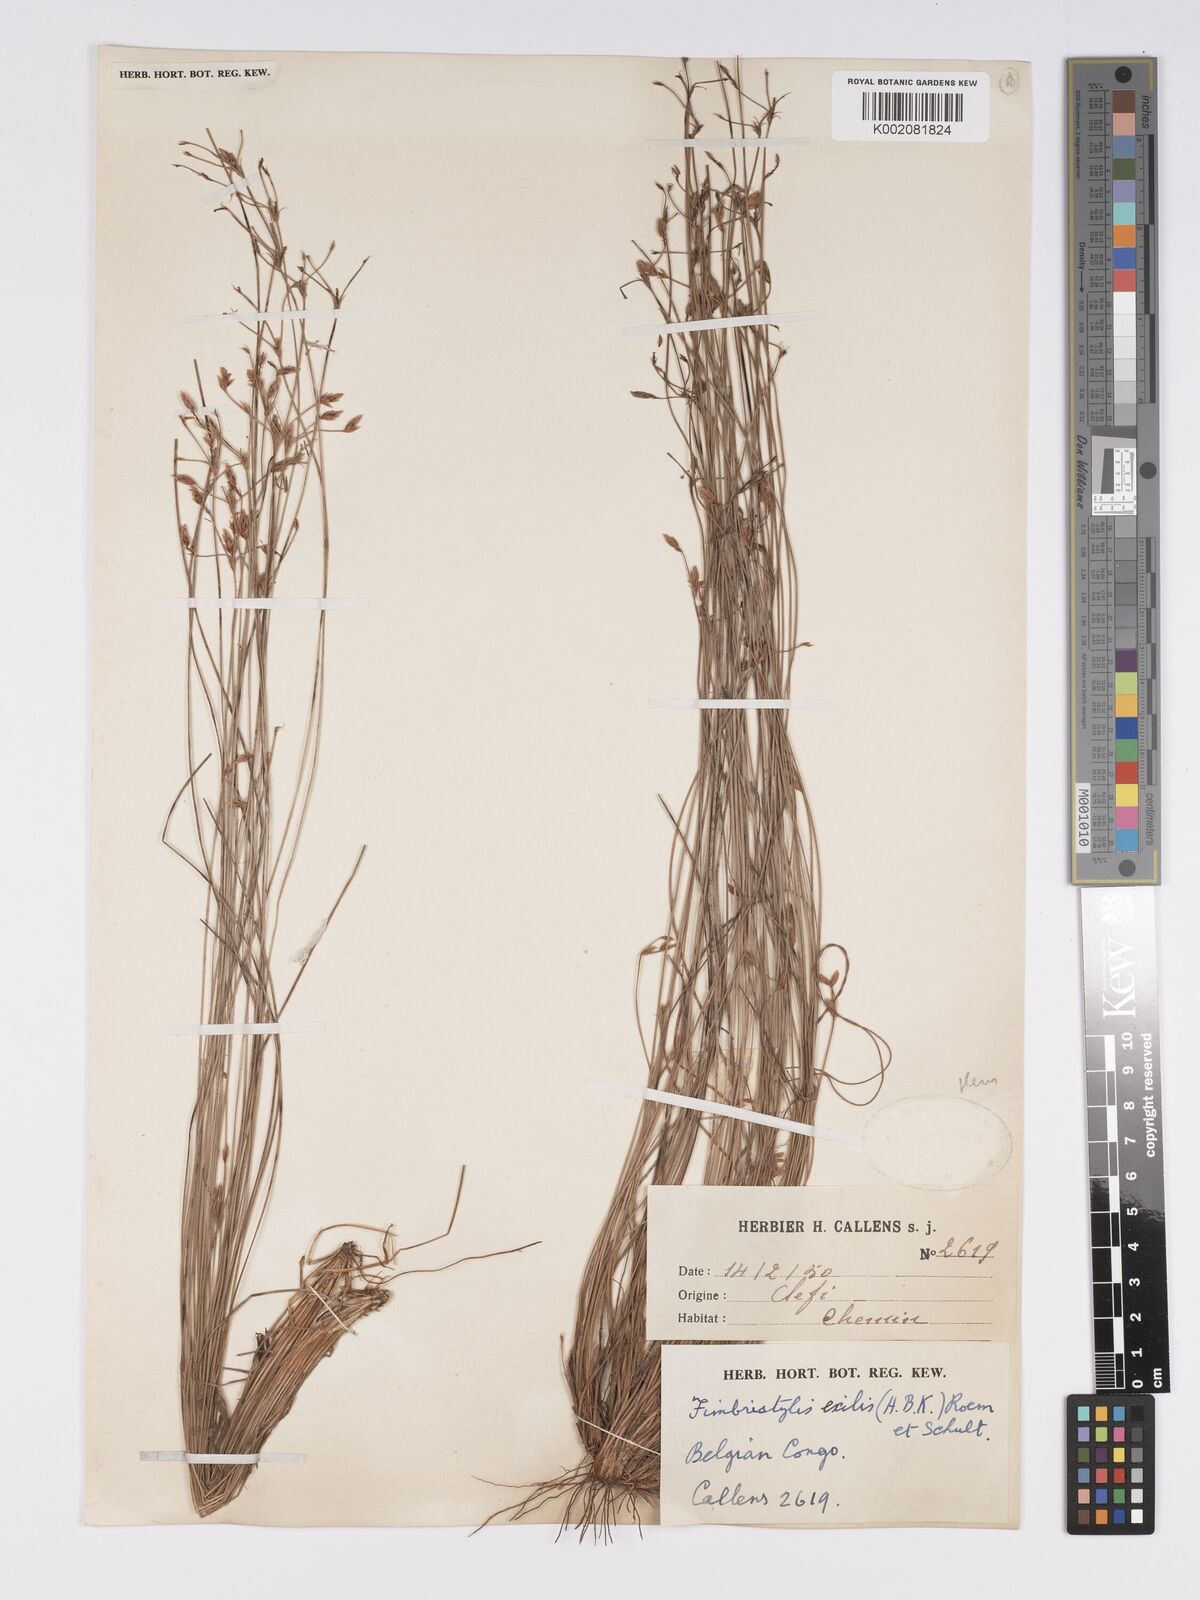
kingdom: Plantae
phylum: Tracheophyta
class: Liliopsida
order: Poales
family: Cyperaceae
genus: Bulbostylis
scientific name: Bulbostylis hispidula
